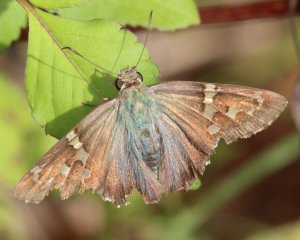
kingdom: Animalia
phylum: Arthropoda
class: Insecta
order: Lepidoptera
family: Hesperiidae
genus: Urbanus
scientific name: Urbanus proteus
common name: Long-tailed Skipper
